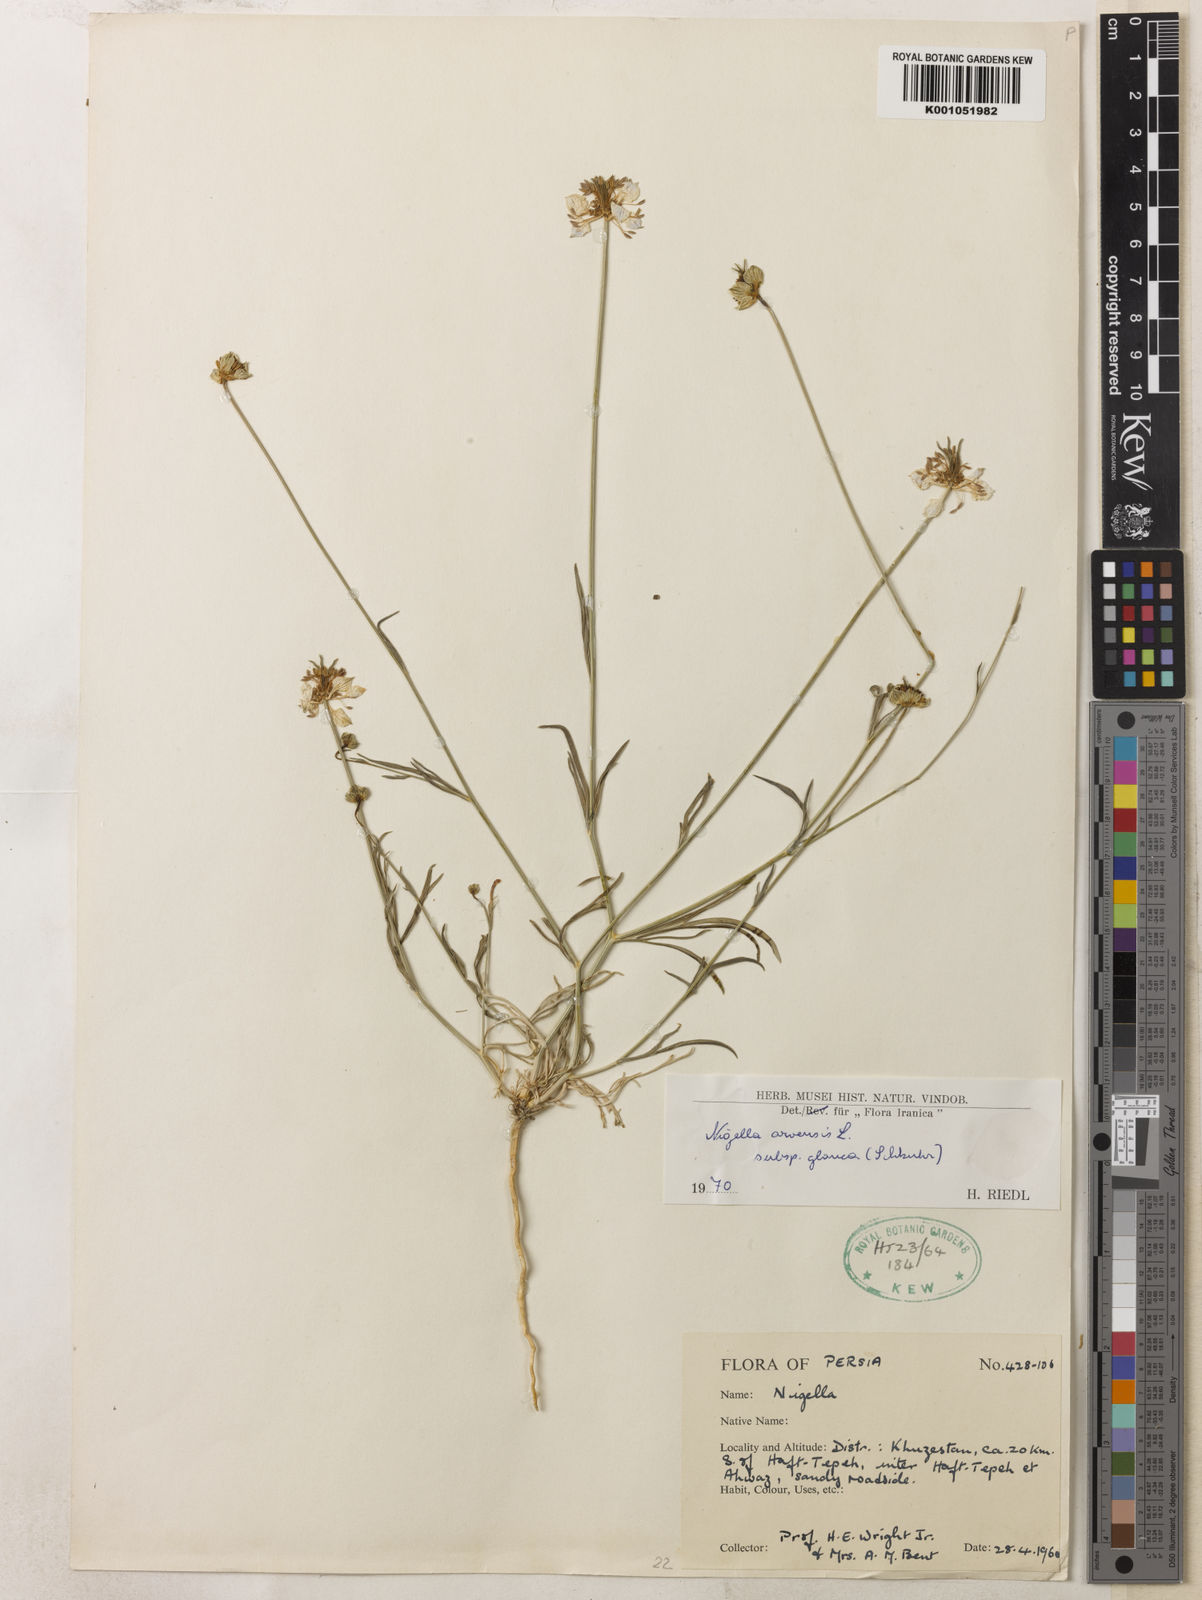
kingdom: Plantae
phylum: Tracheophyta
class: Magnoliopsida
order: Ranunculales
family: Ranunculaceae
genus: Nigella
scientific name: Nigella deserti
